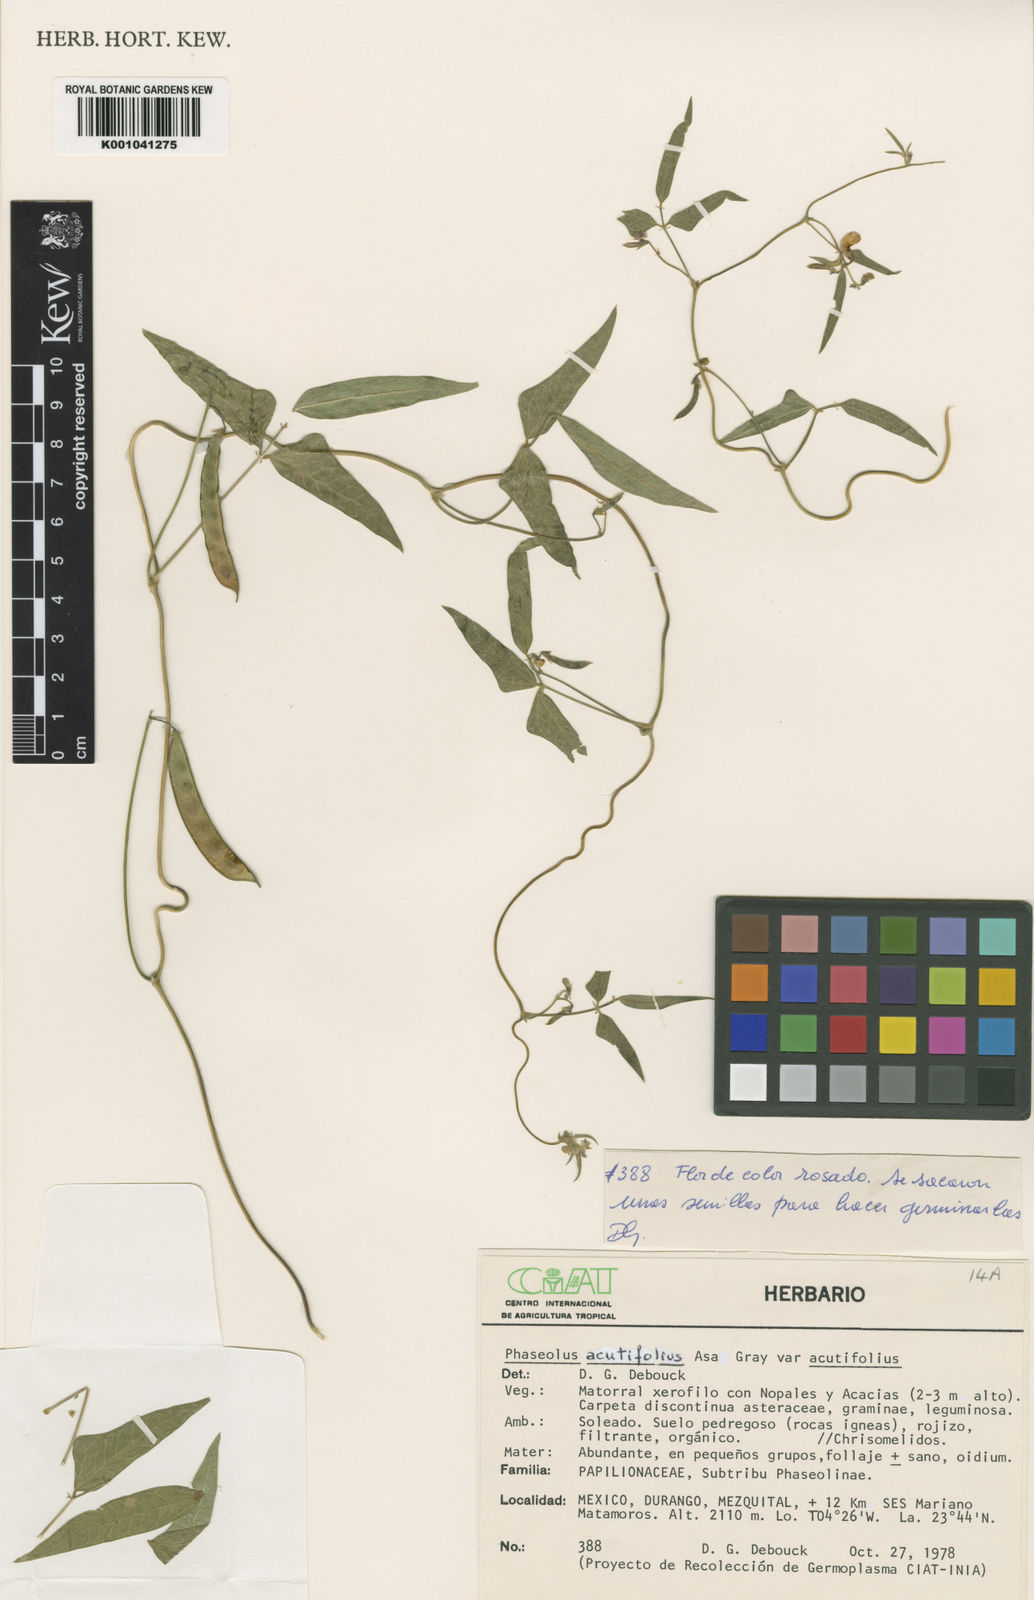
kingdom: Plantae
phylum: Tracheophyta
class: Magnoliopsida
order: Fabales
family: Fabaceae
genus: Phaseolus
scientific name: Phaseolus acutifolius
